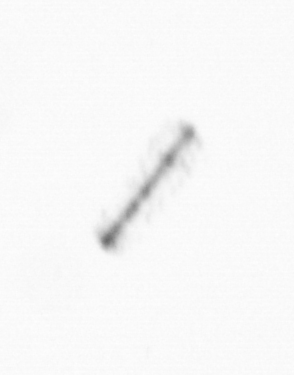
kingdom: Chromista
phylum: Ochrophyta
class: Bacillariophyceae
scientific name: Bacillariophyceae
